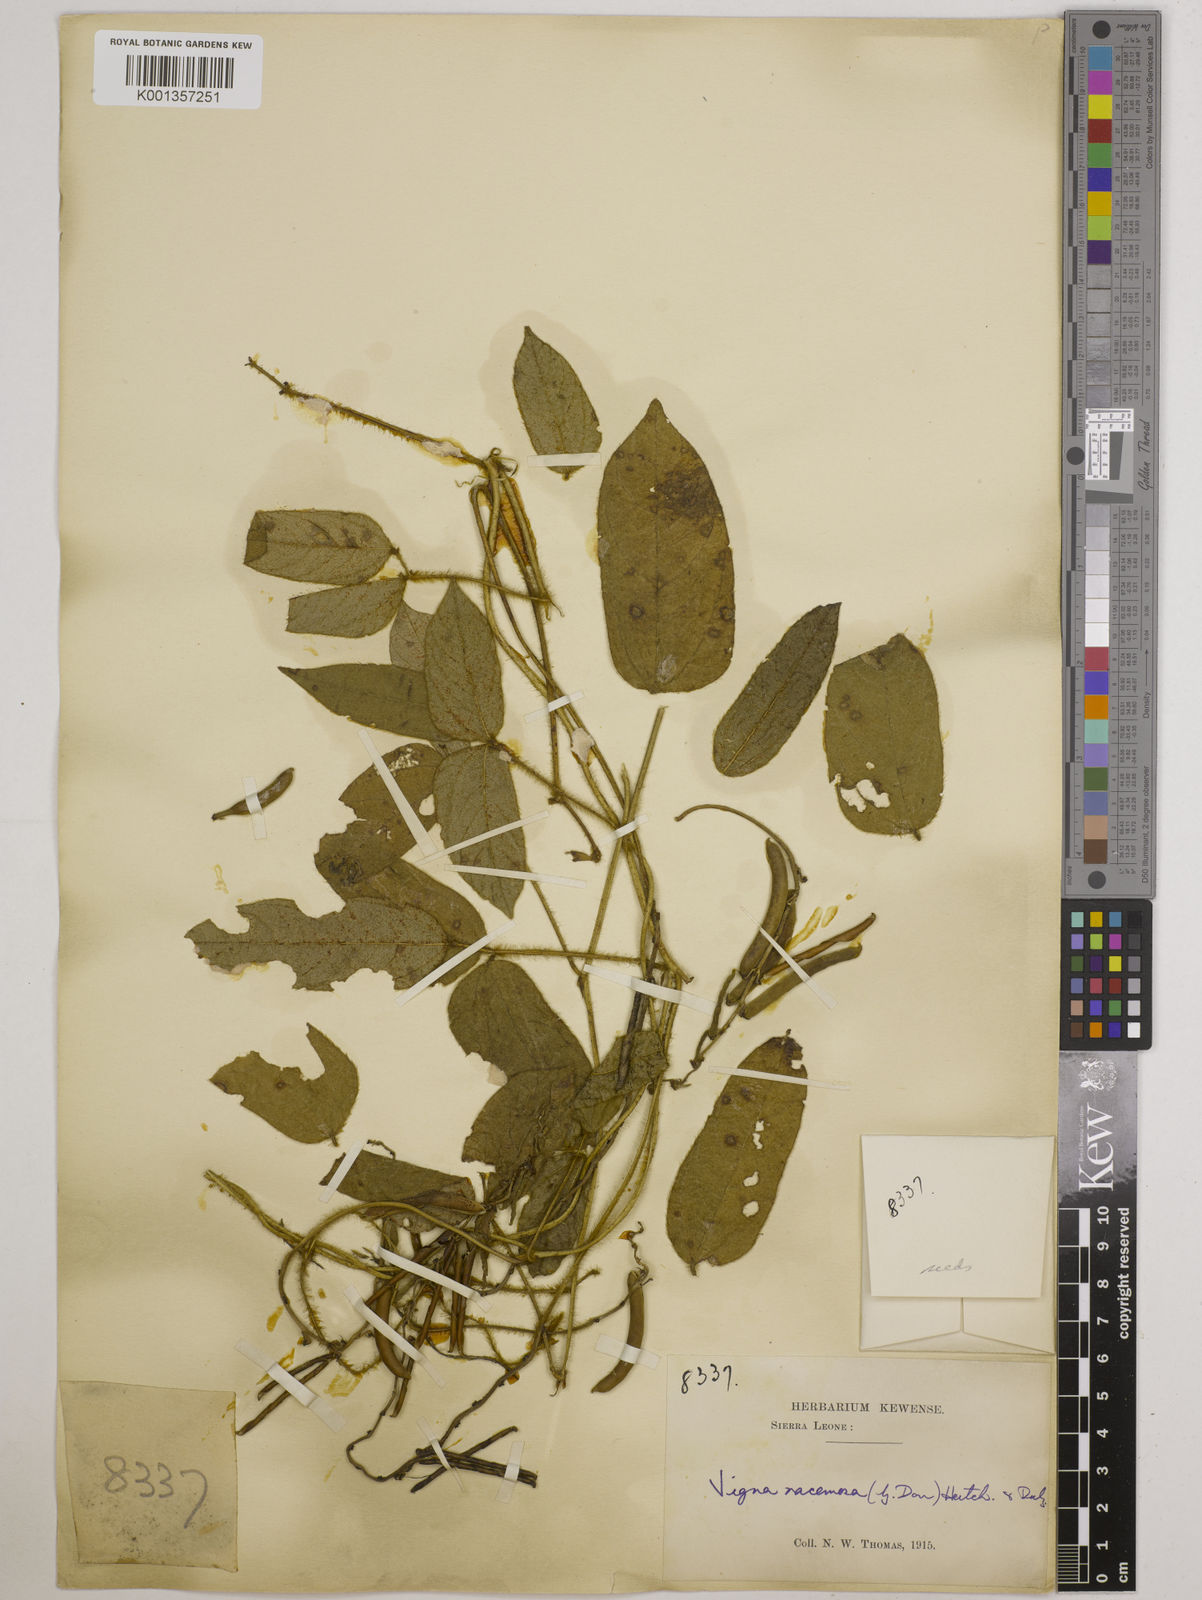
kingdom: Plantae
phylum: Tracheophyta
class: Magnoliopsida
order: Fabales
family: Fabaceae
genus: Vigna
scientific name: Vigna racemosa
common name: Beans not eaten
